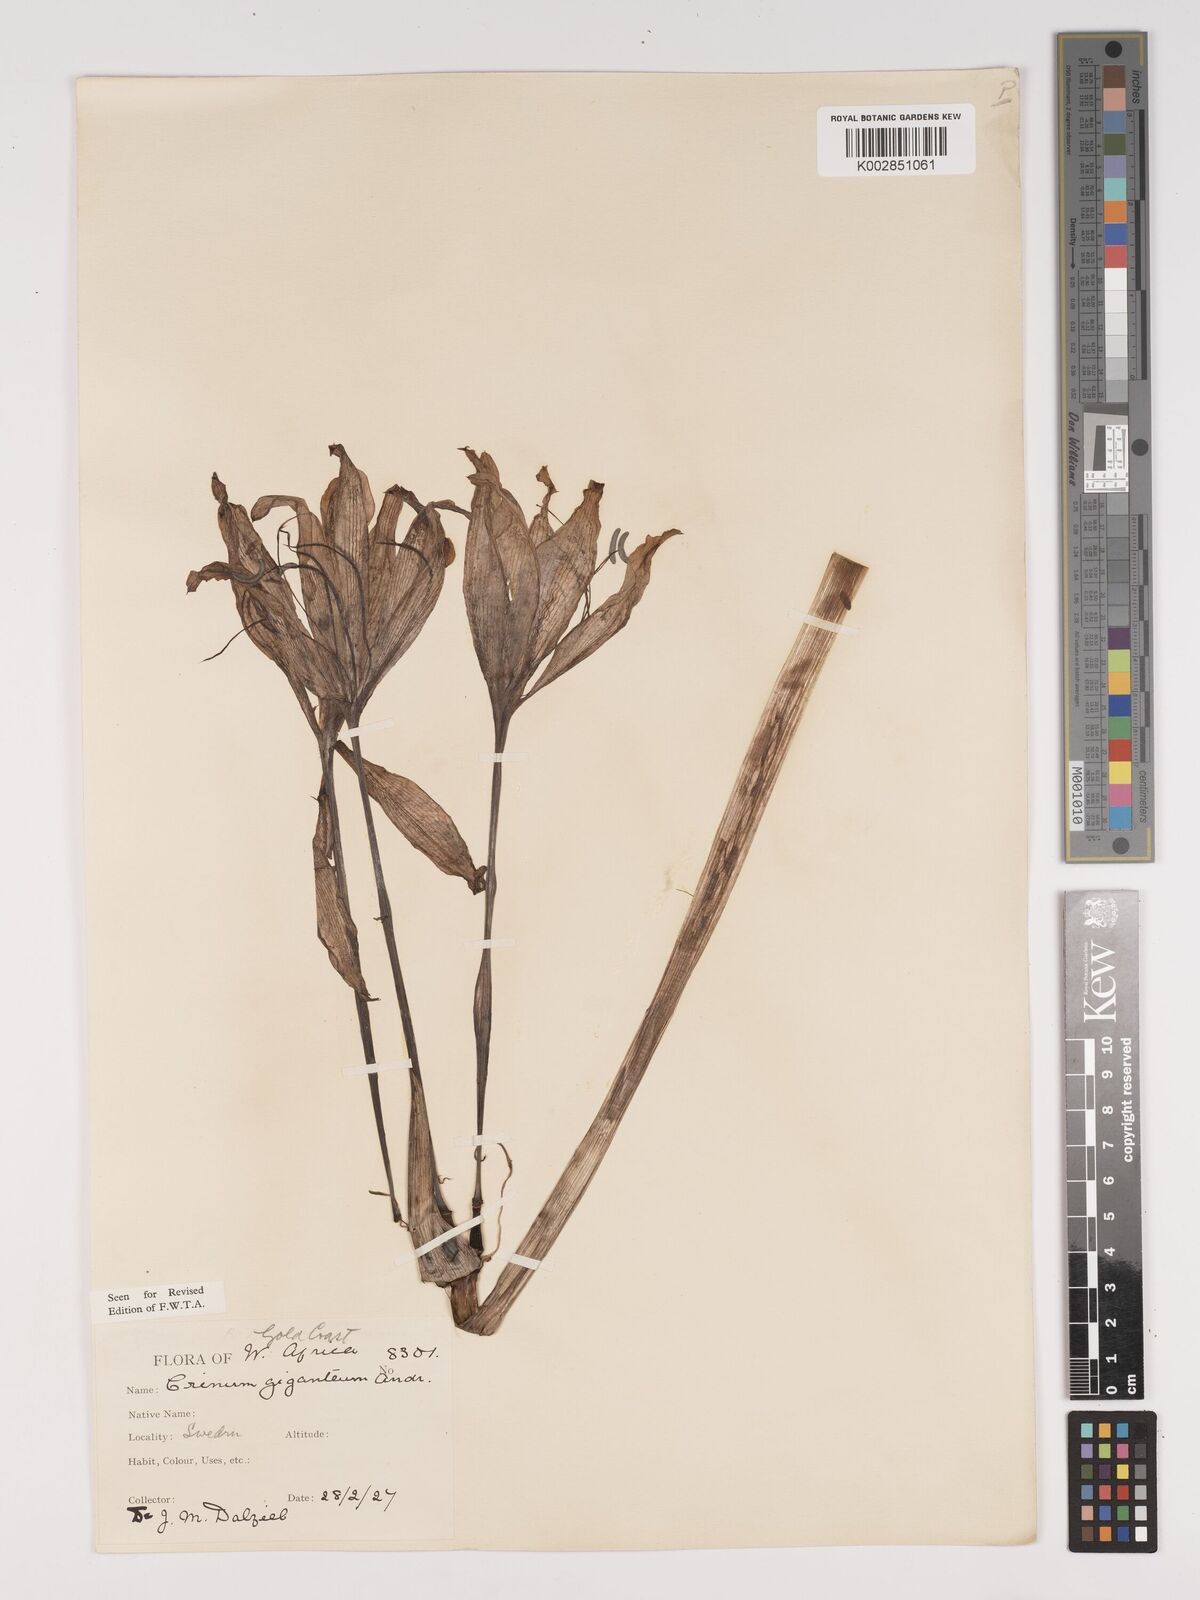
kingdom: Plantae
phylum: Tracheophyta
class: Liliopsida
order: Asparagales
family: Amaryllidaceae
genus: Crinum
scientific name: Crinum jagus
